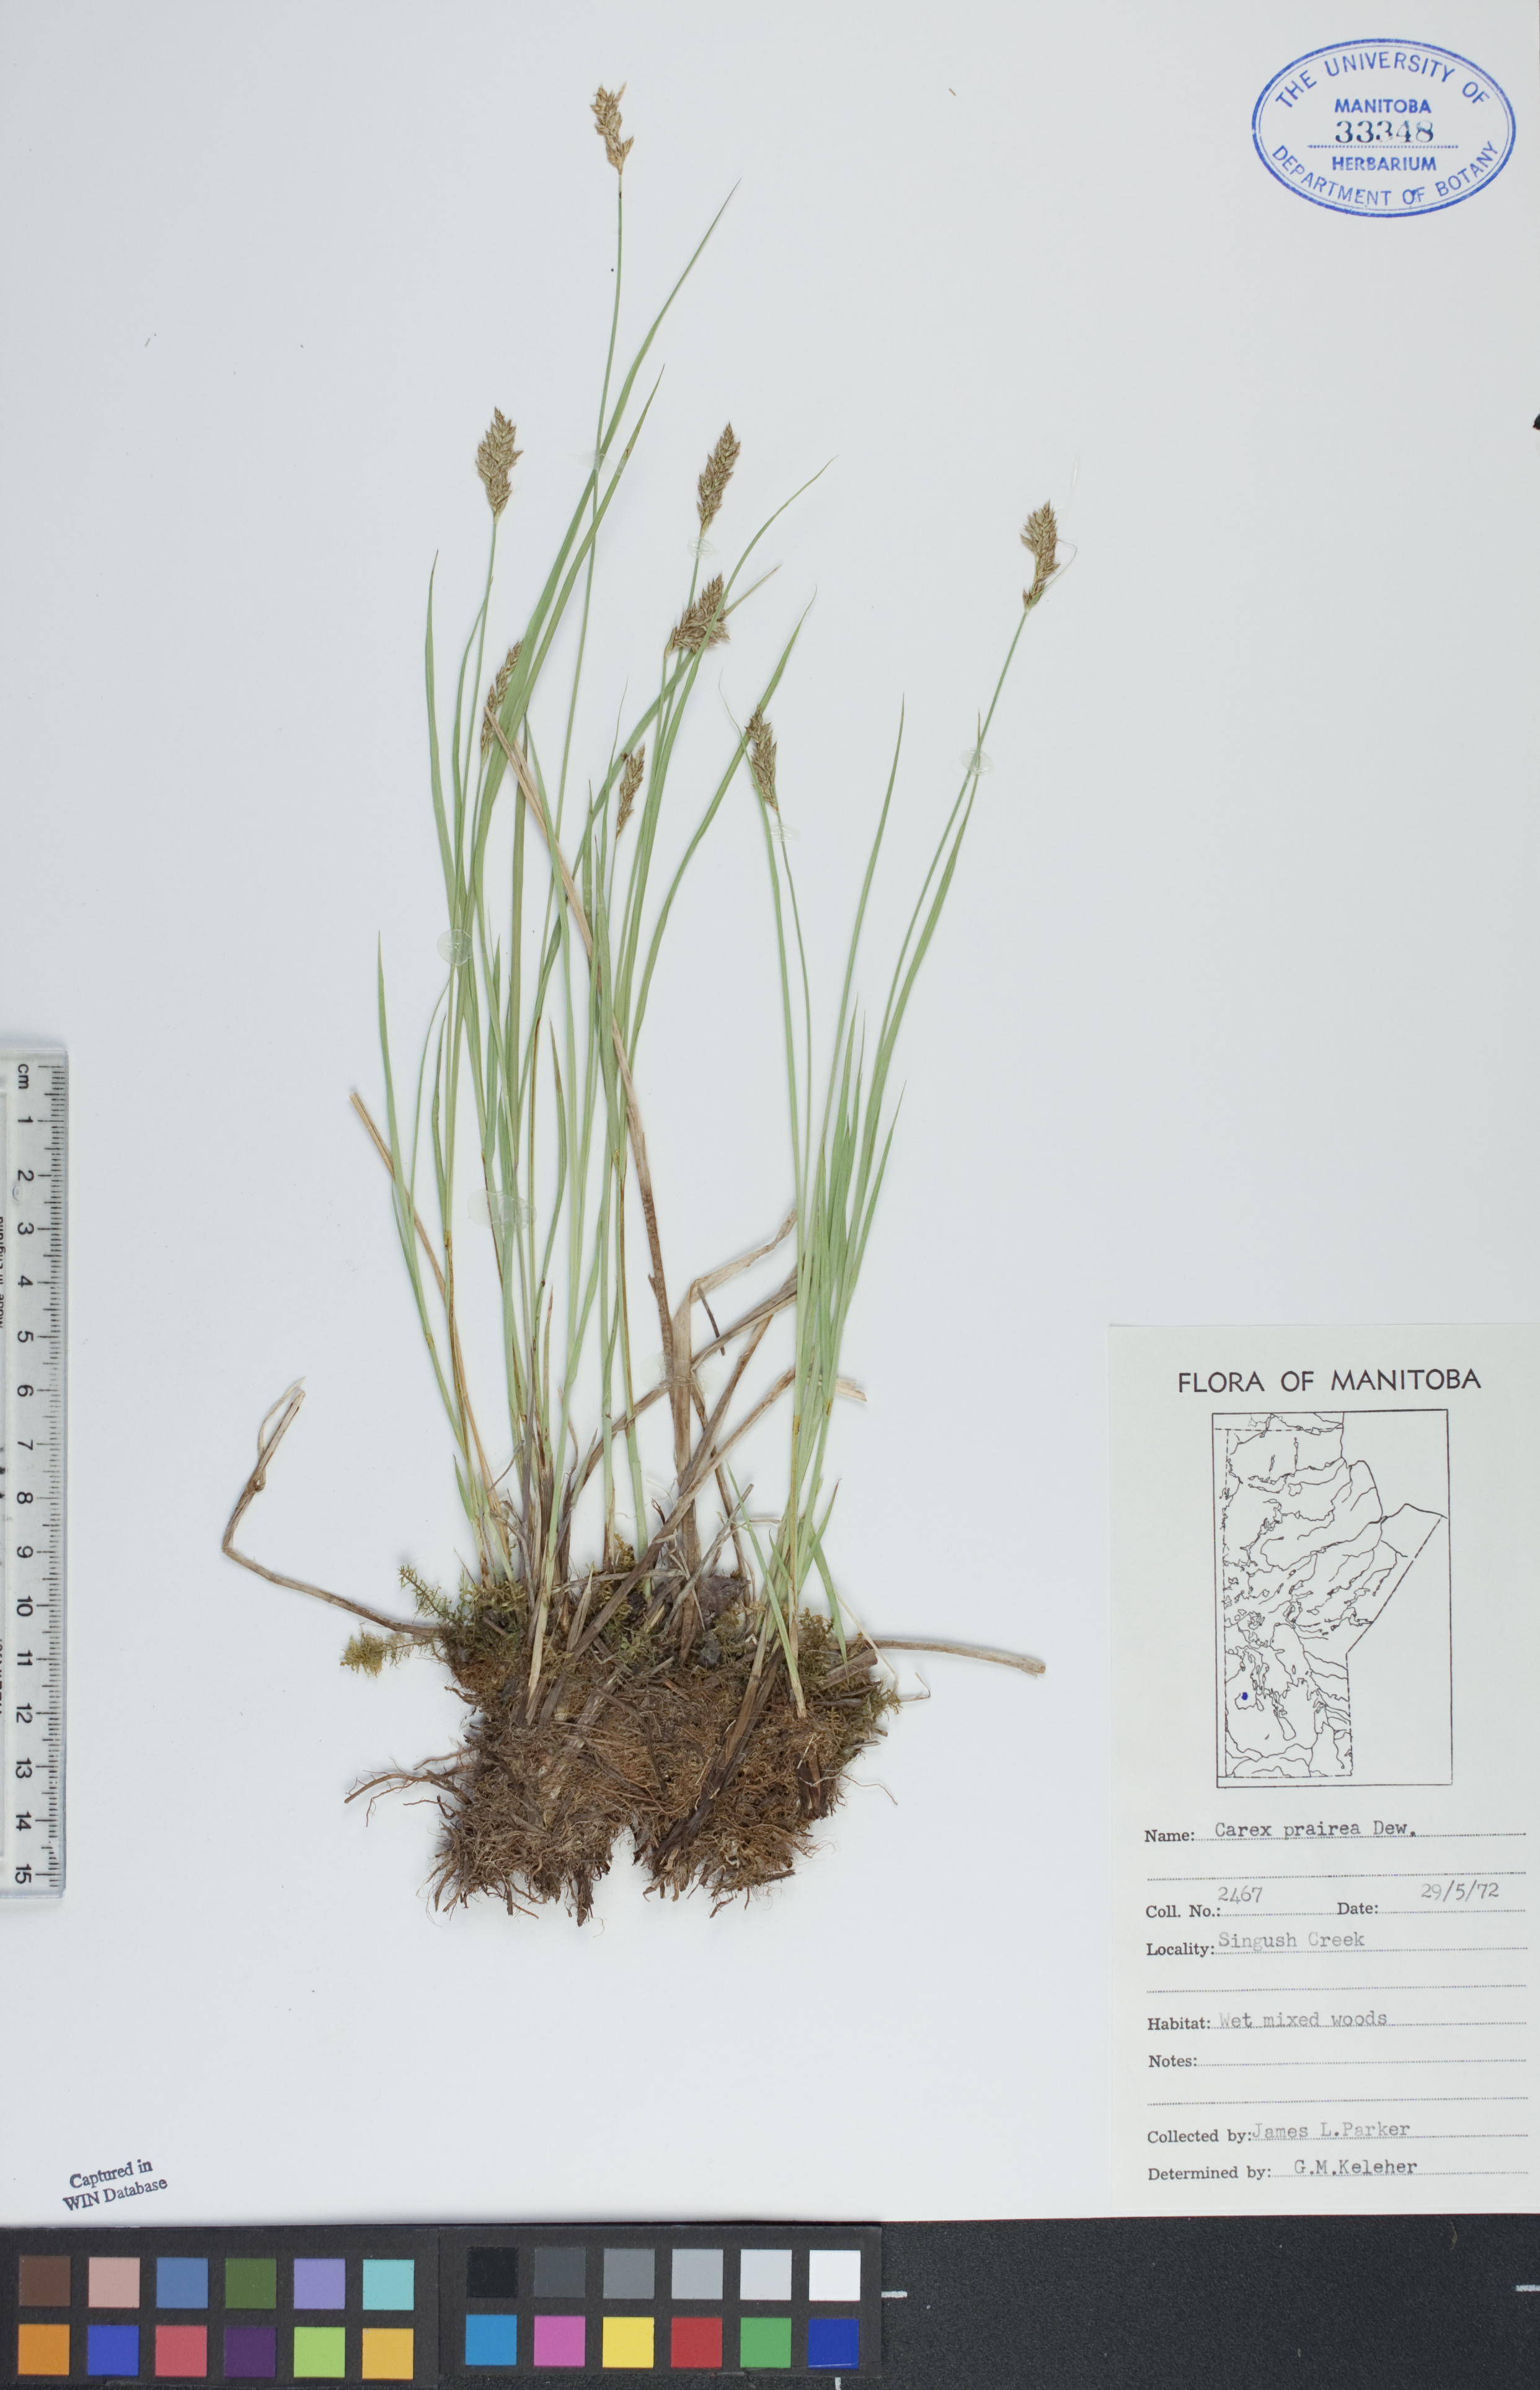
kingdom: Plantae
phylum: Tracheophyta
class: Liliopsida
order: Poales
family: Cyperaceae
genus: Carex
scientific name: Carex prairea
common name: Prairie sedge
